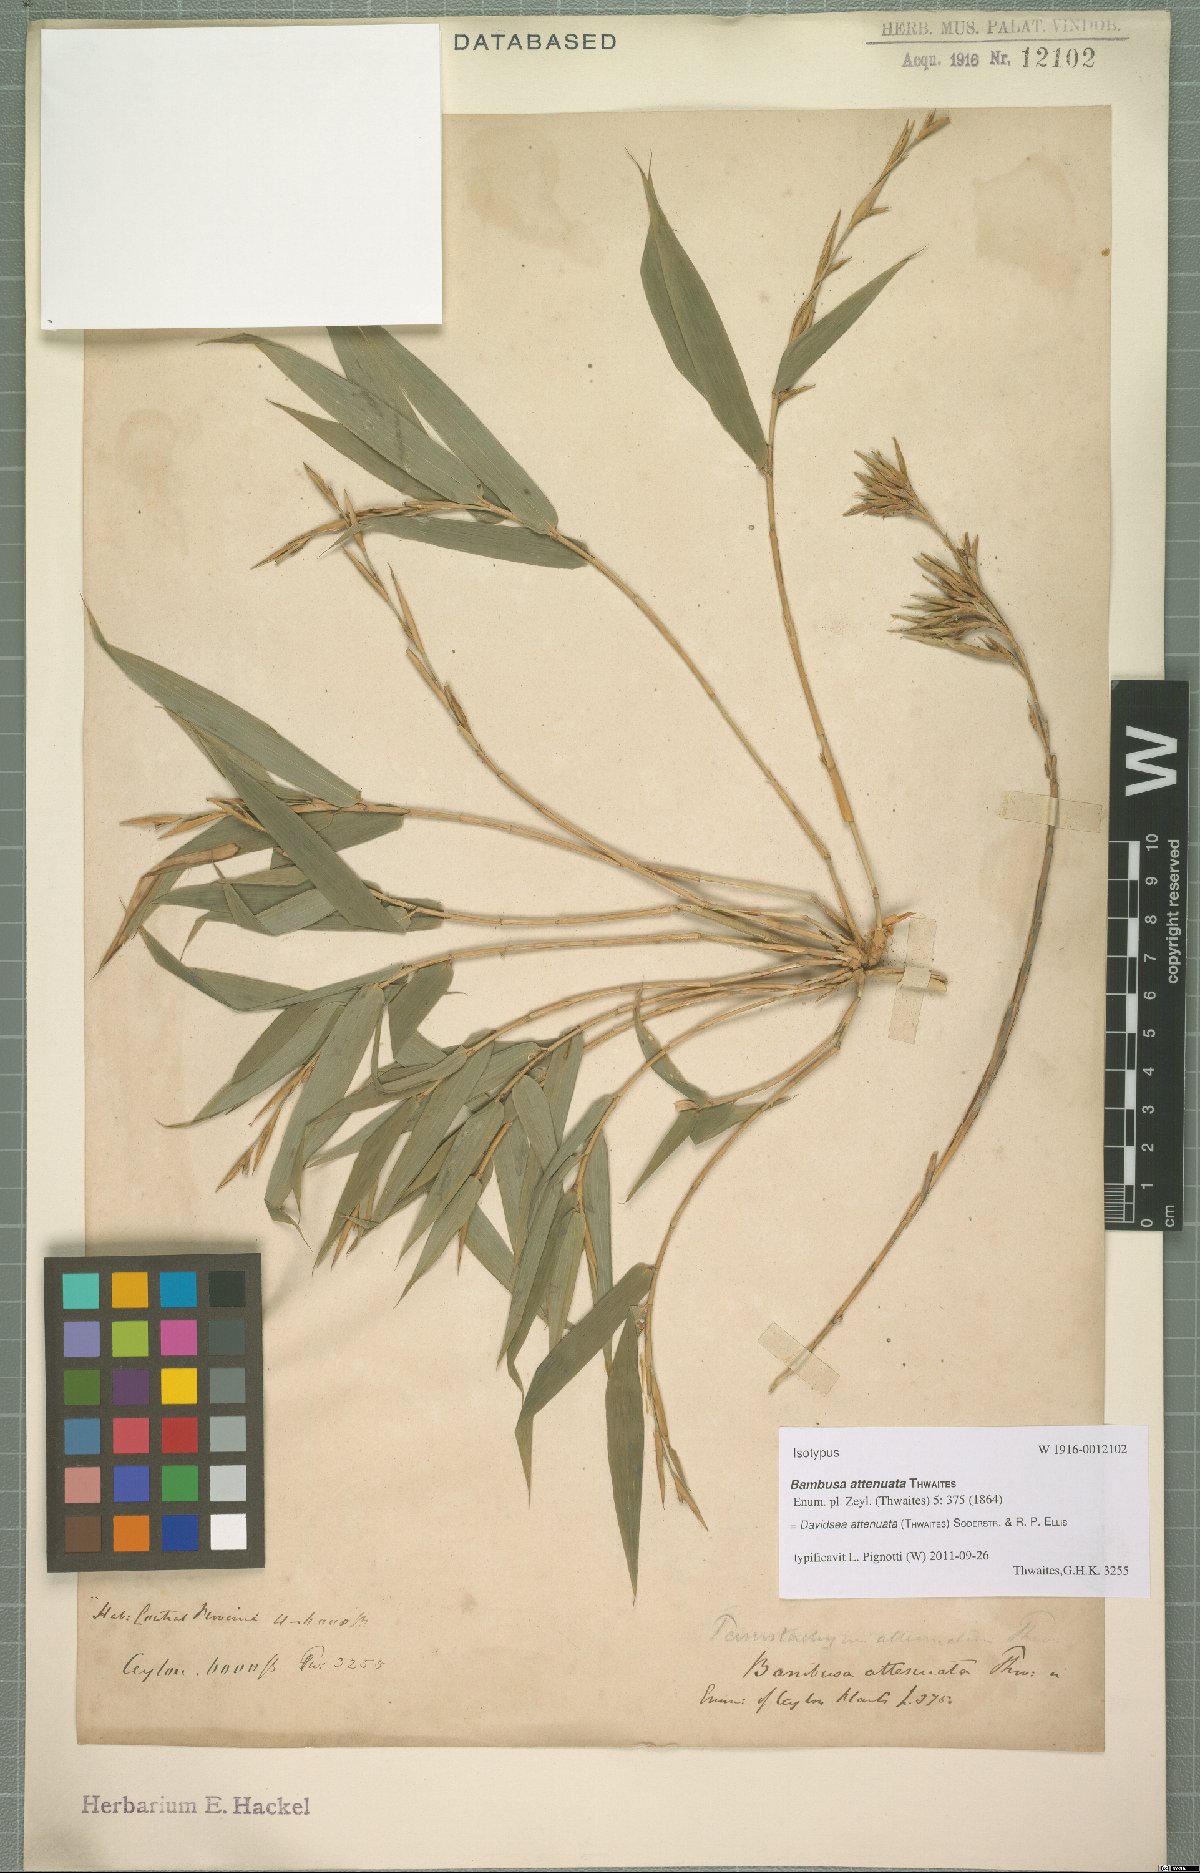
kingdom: Plantae
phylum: Tracheophyta
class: Liliopsida
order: Poales
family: Poaceae
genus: Davidsea
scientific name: Davidsea attenuata
